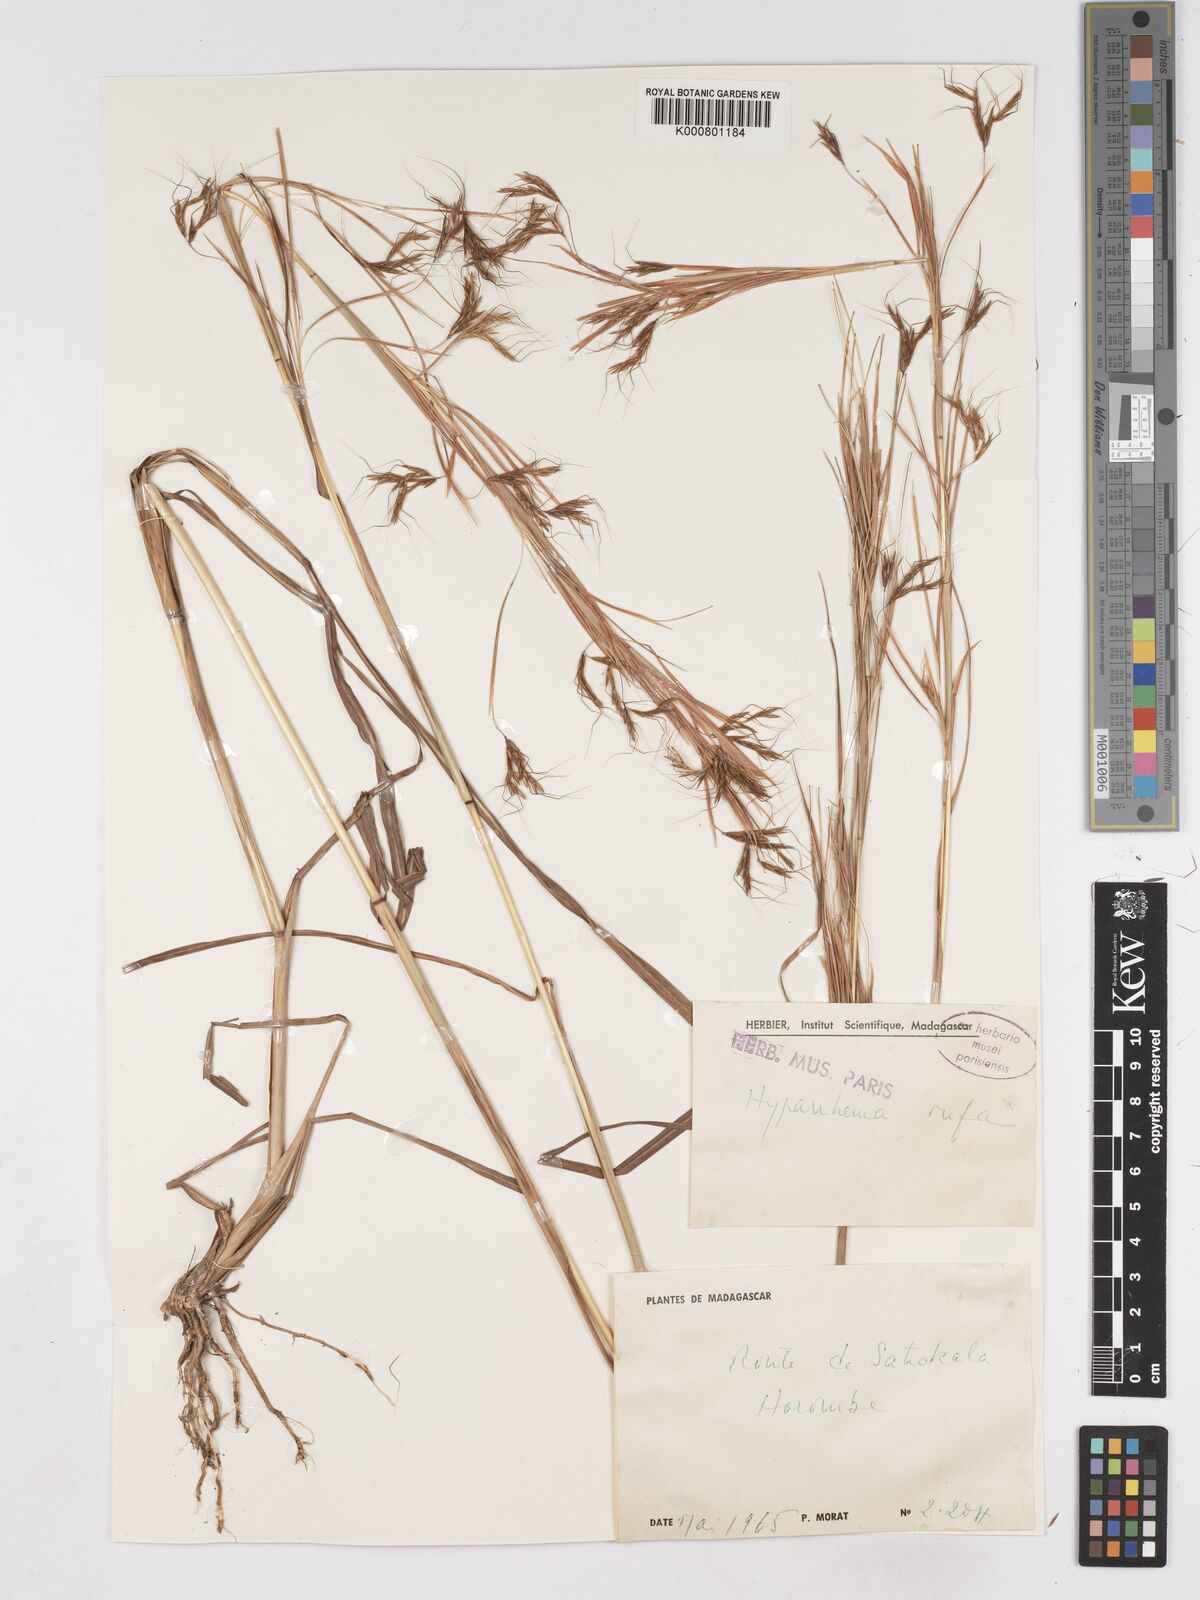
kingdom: Plantae
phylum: Tracheophyta
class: Liliopsida
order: Poales
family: Poaceae
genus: Hyparrhenia
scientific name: Hyparrhenia rufa
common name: Jaraguagrass
